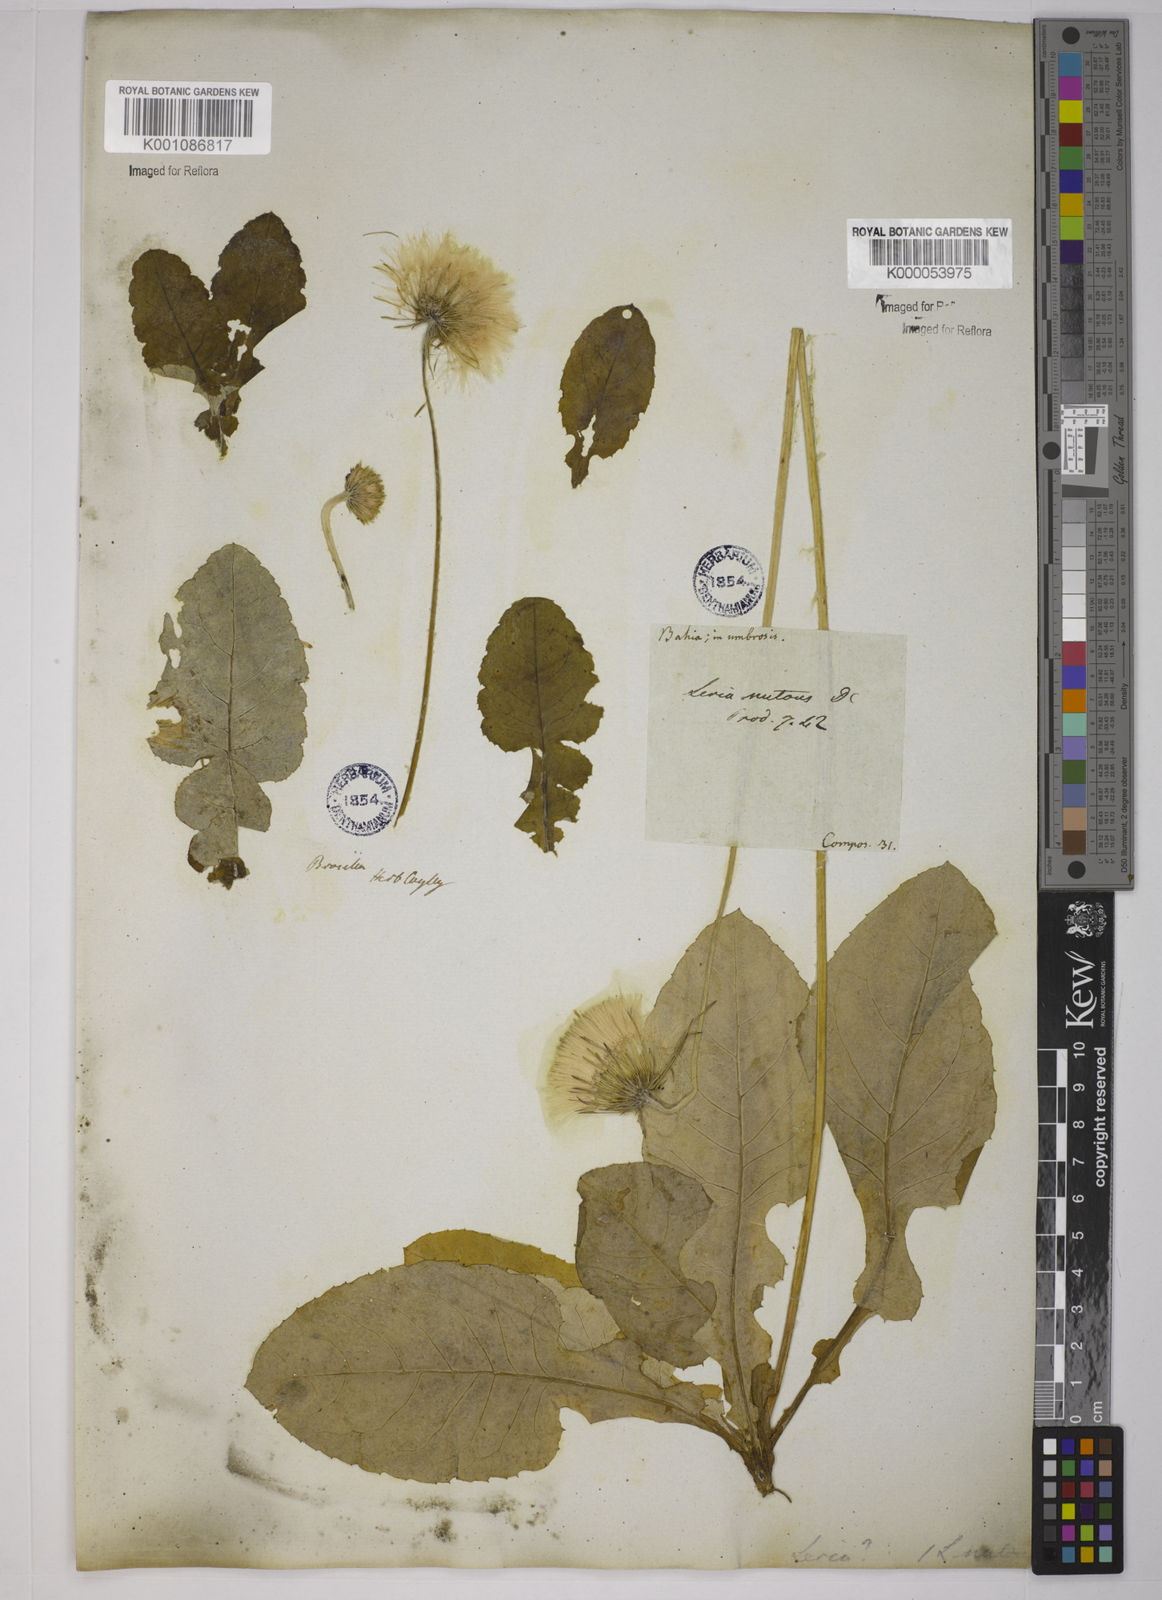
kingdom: Plantae
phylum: Tracheophyta
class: Magnoliopsida
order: Asterales
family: Asteraceae
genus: Chaptalia
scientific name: Chaptalia nutans
